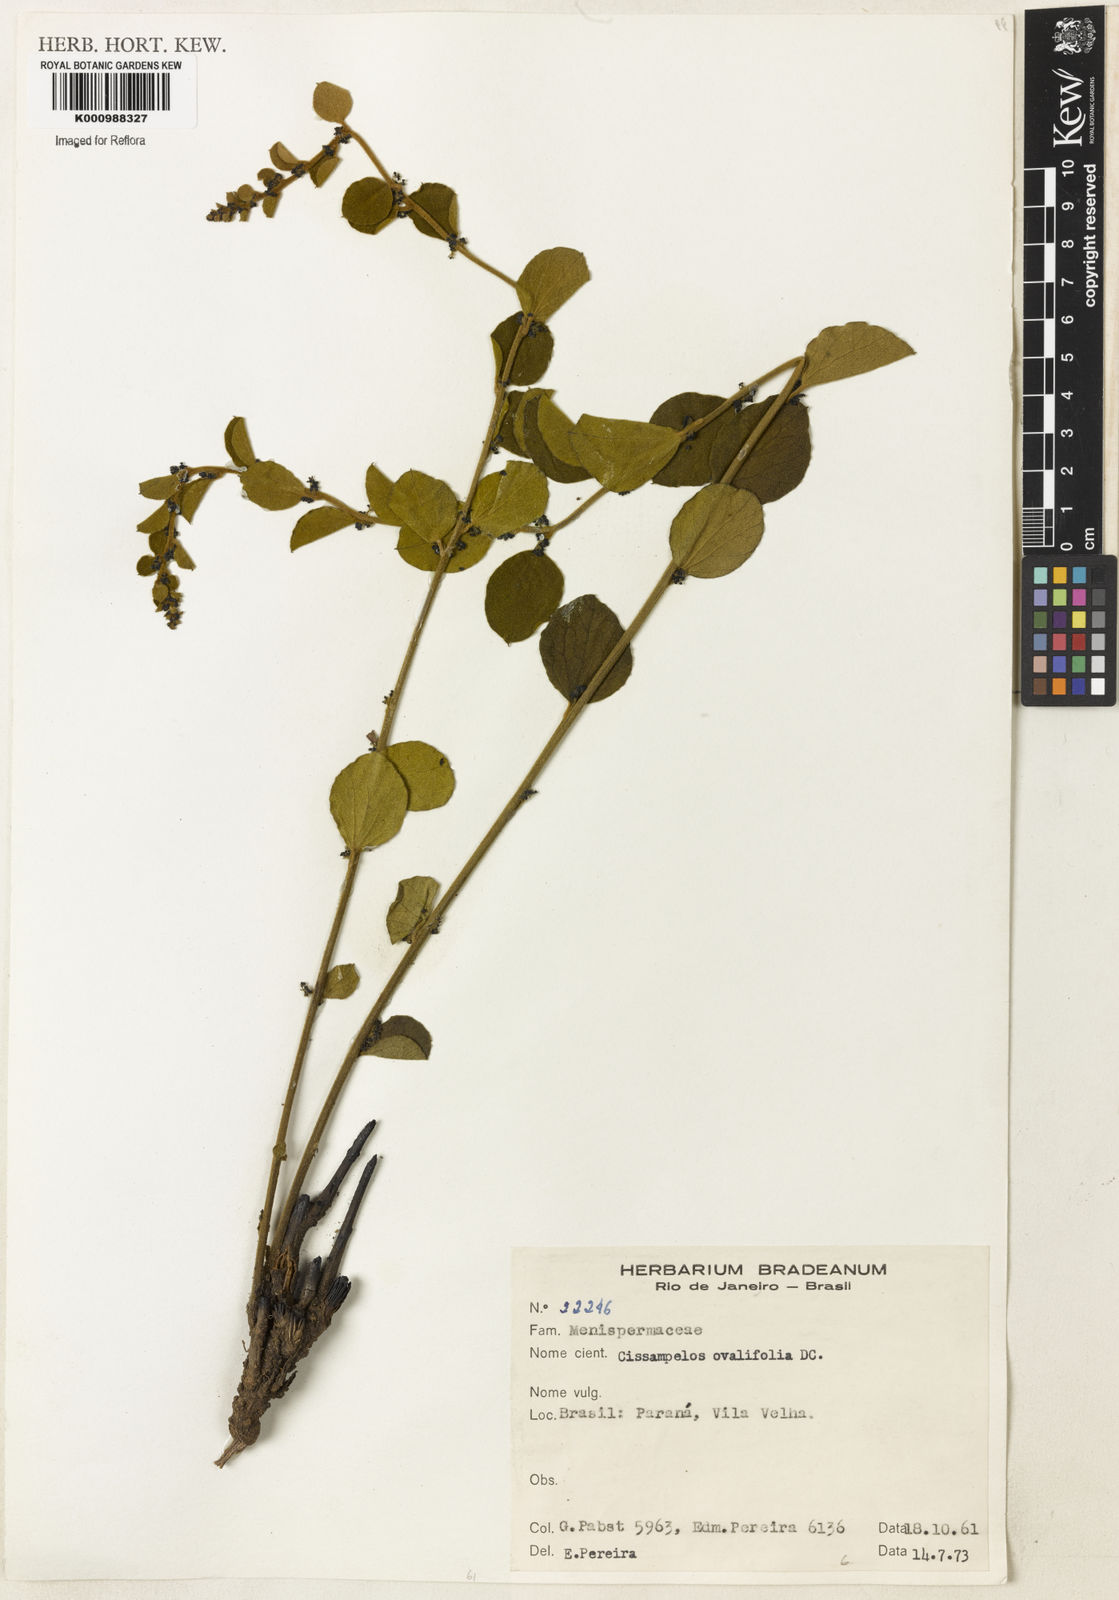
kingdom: Plantae
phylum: Tracheophyta
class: Magnoliopsida
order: Ranunculales
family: Menispermaceae
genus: Cissampelos
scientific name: Cissampelos ovalifolia
